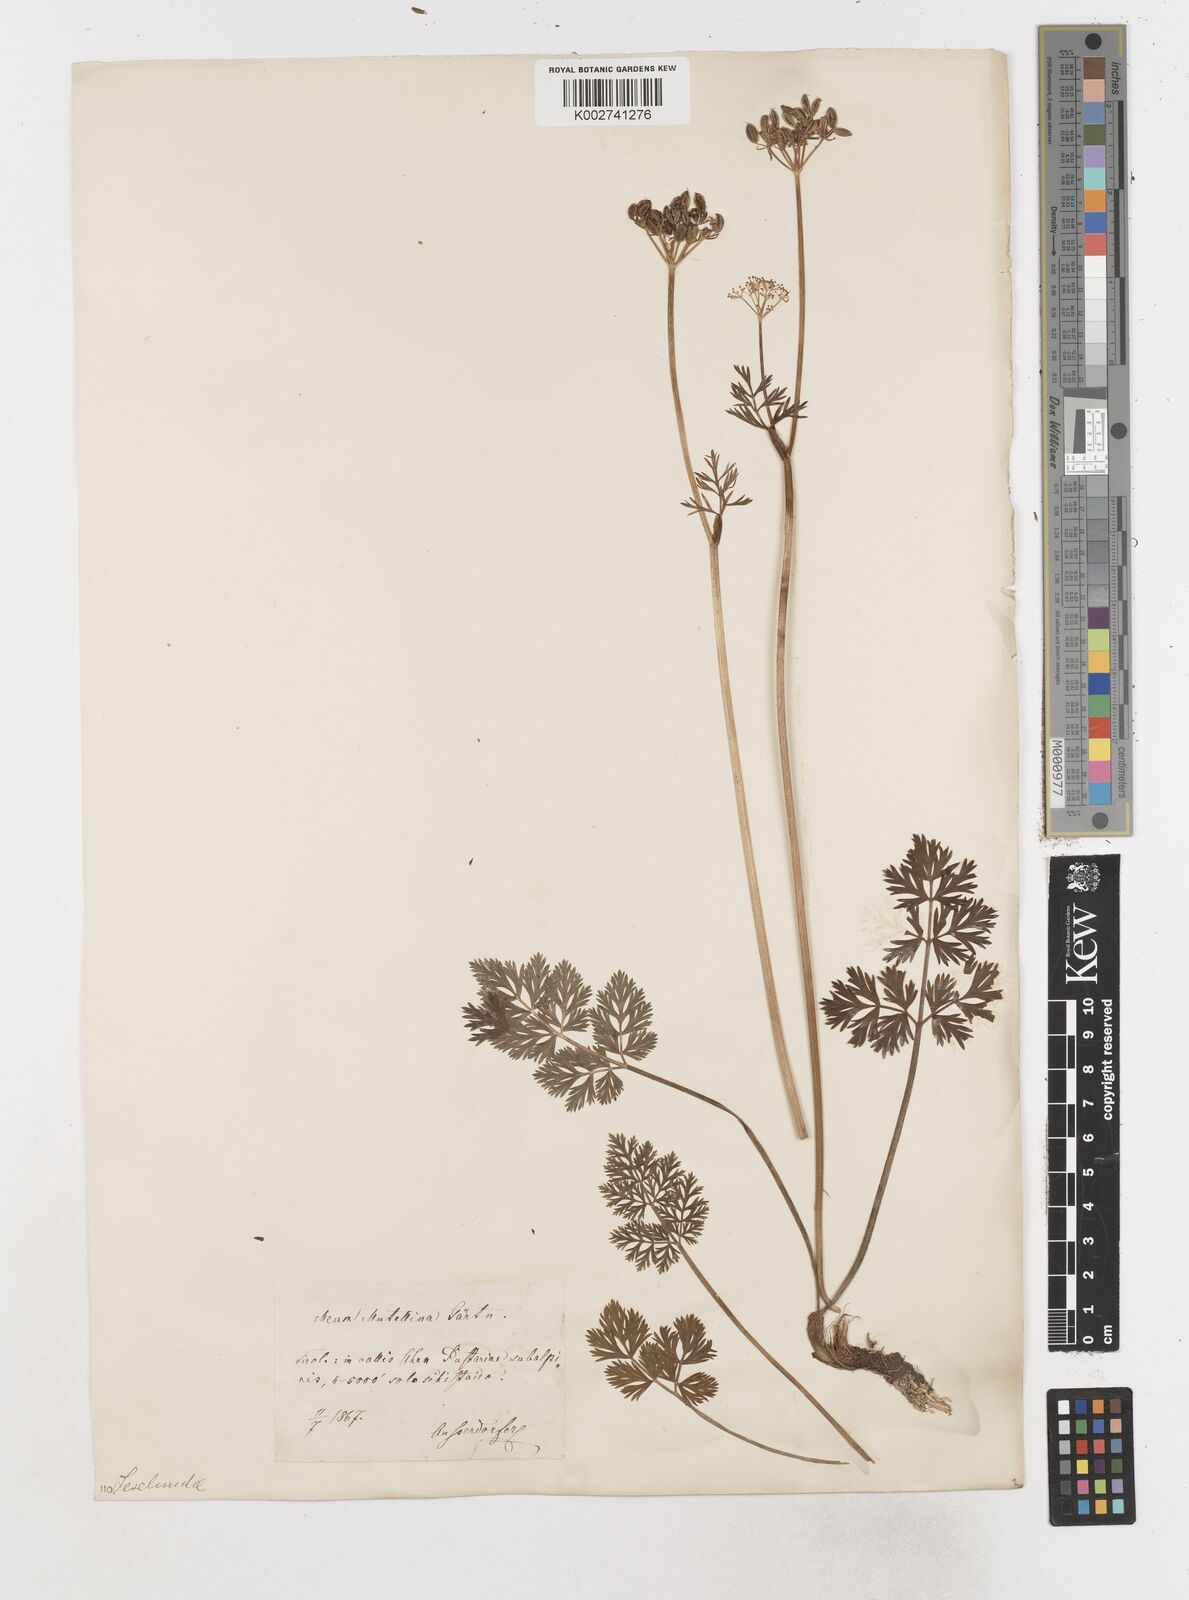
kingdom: Plantae
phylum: Tracheophyta
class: Magnoliopsida
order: Apiales
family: Apiaceae
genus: Mutellina
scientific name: Mutellina adonidifolia
